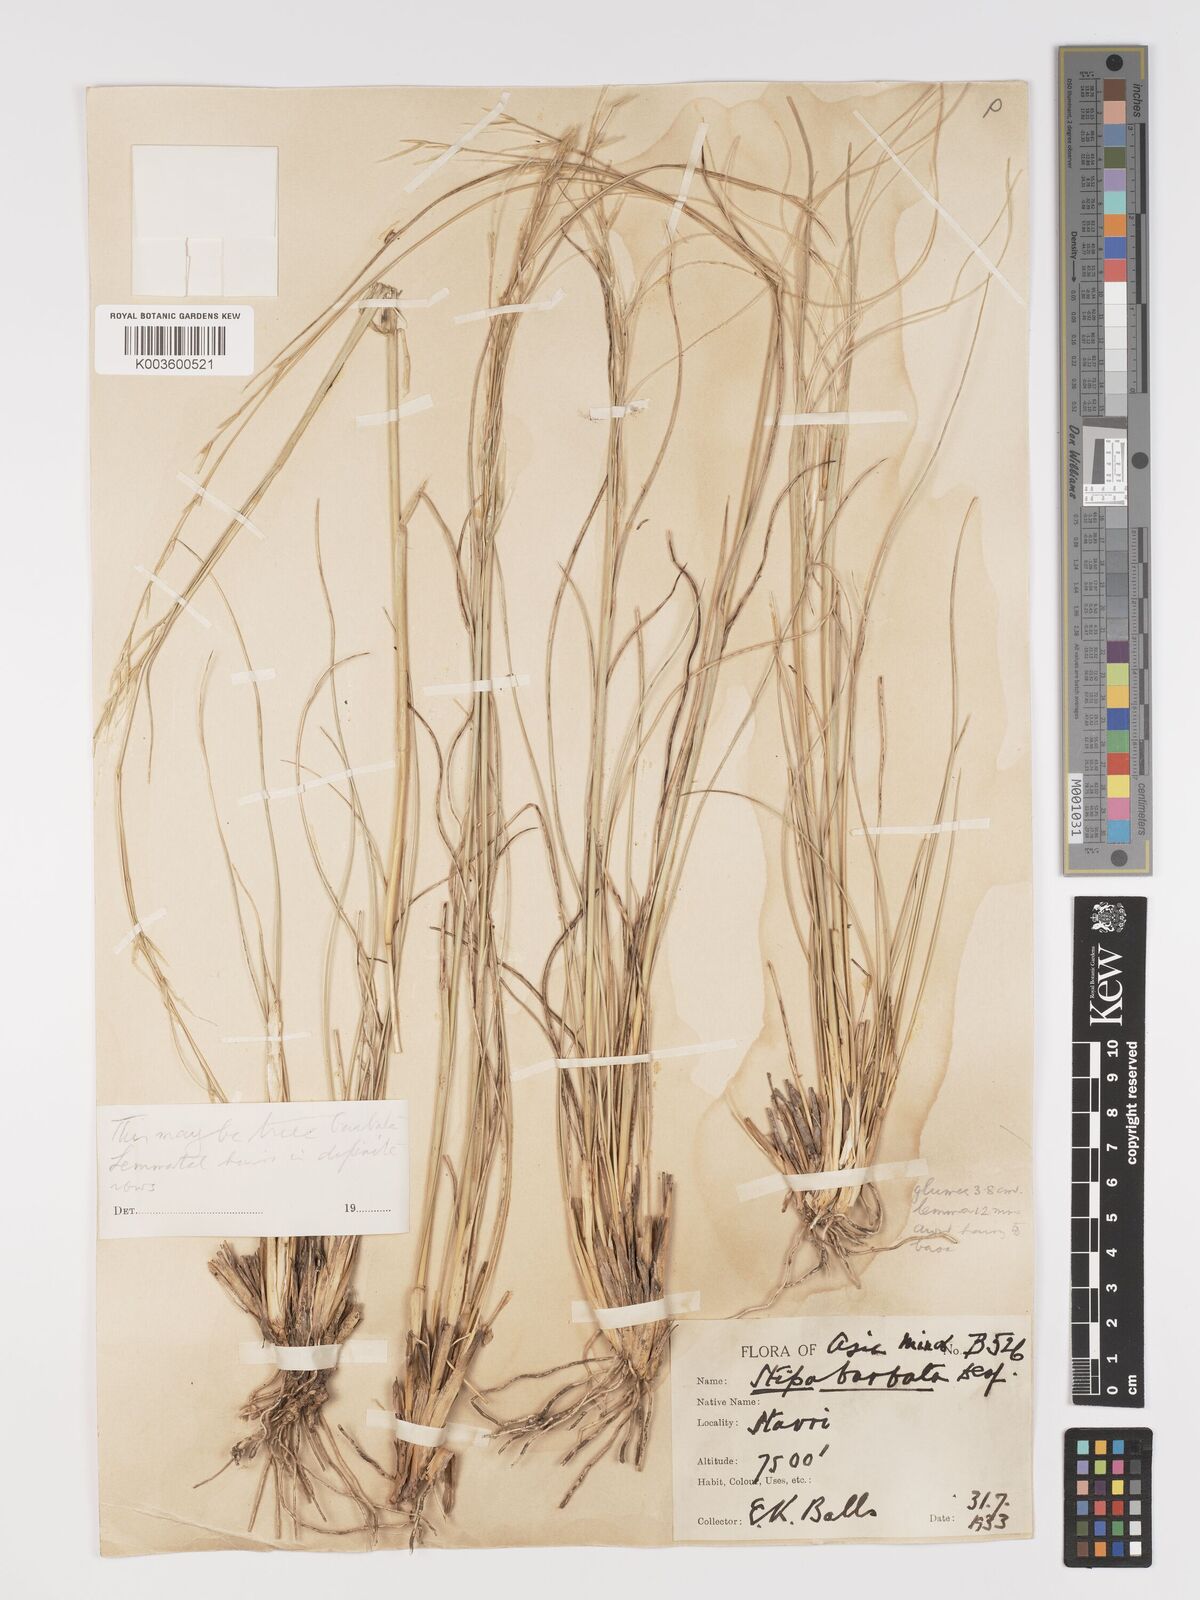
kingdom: Plantae
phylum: Tracheophyta
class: Liliopsida
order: Poales
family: Poaceae
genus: Stipa
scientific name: Stipa barbata
